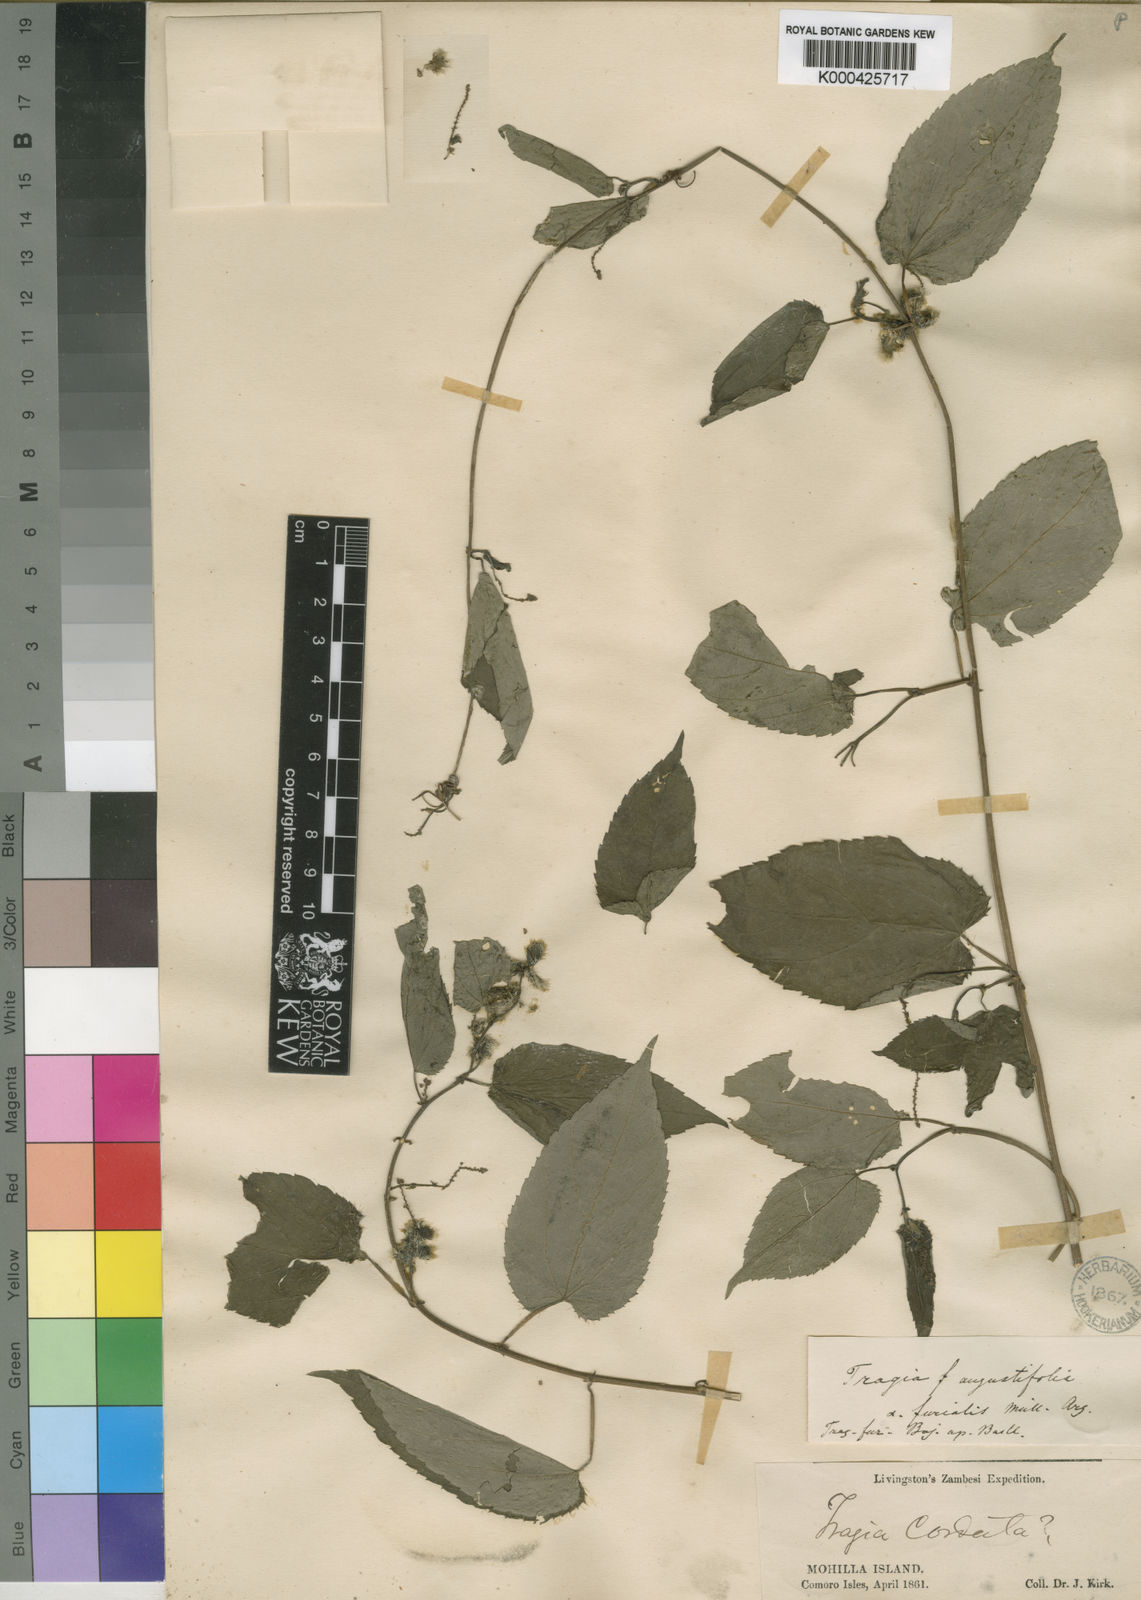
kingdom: Plantae
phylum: Tracheophyta
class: Magnoliopsida
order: Malpighiales
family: Euphorbiaceae
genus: Tragia
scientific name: Tragia furialis
